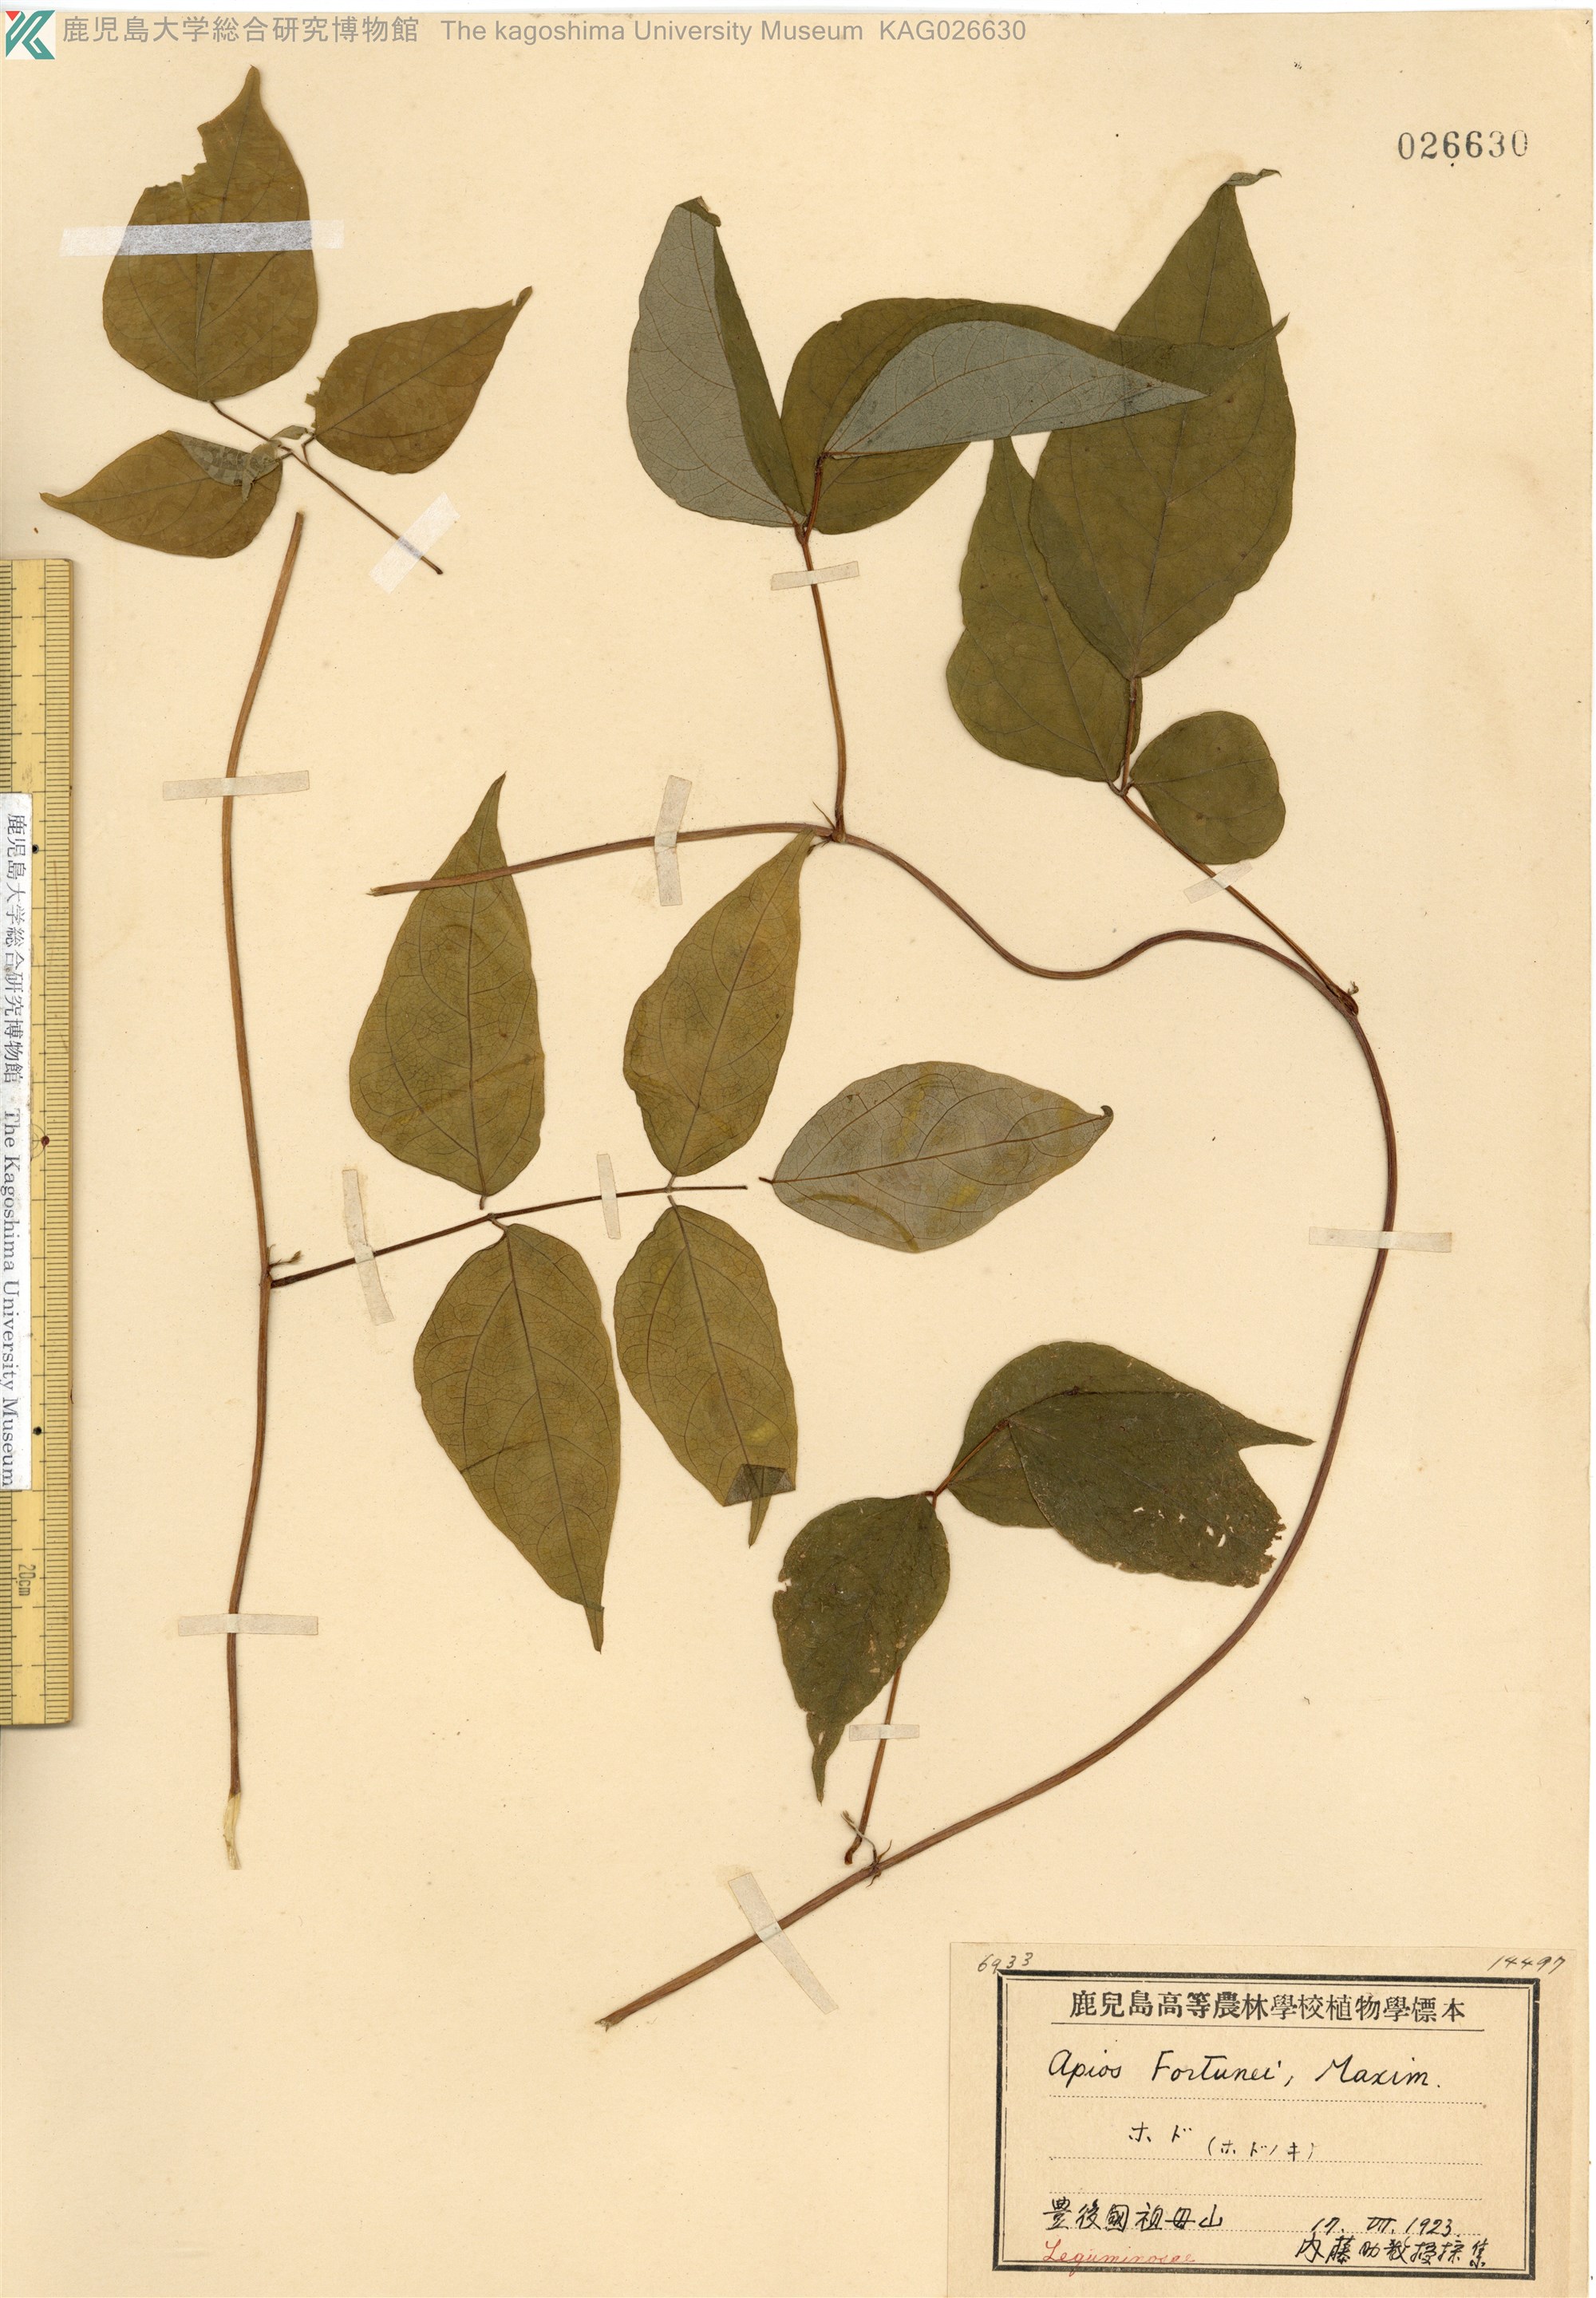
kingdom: Plantae
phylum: Tracheophyta
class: Magnoliopsida
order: Fabales
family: Fabaceae
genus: Apios
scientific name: Apios fortunei
